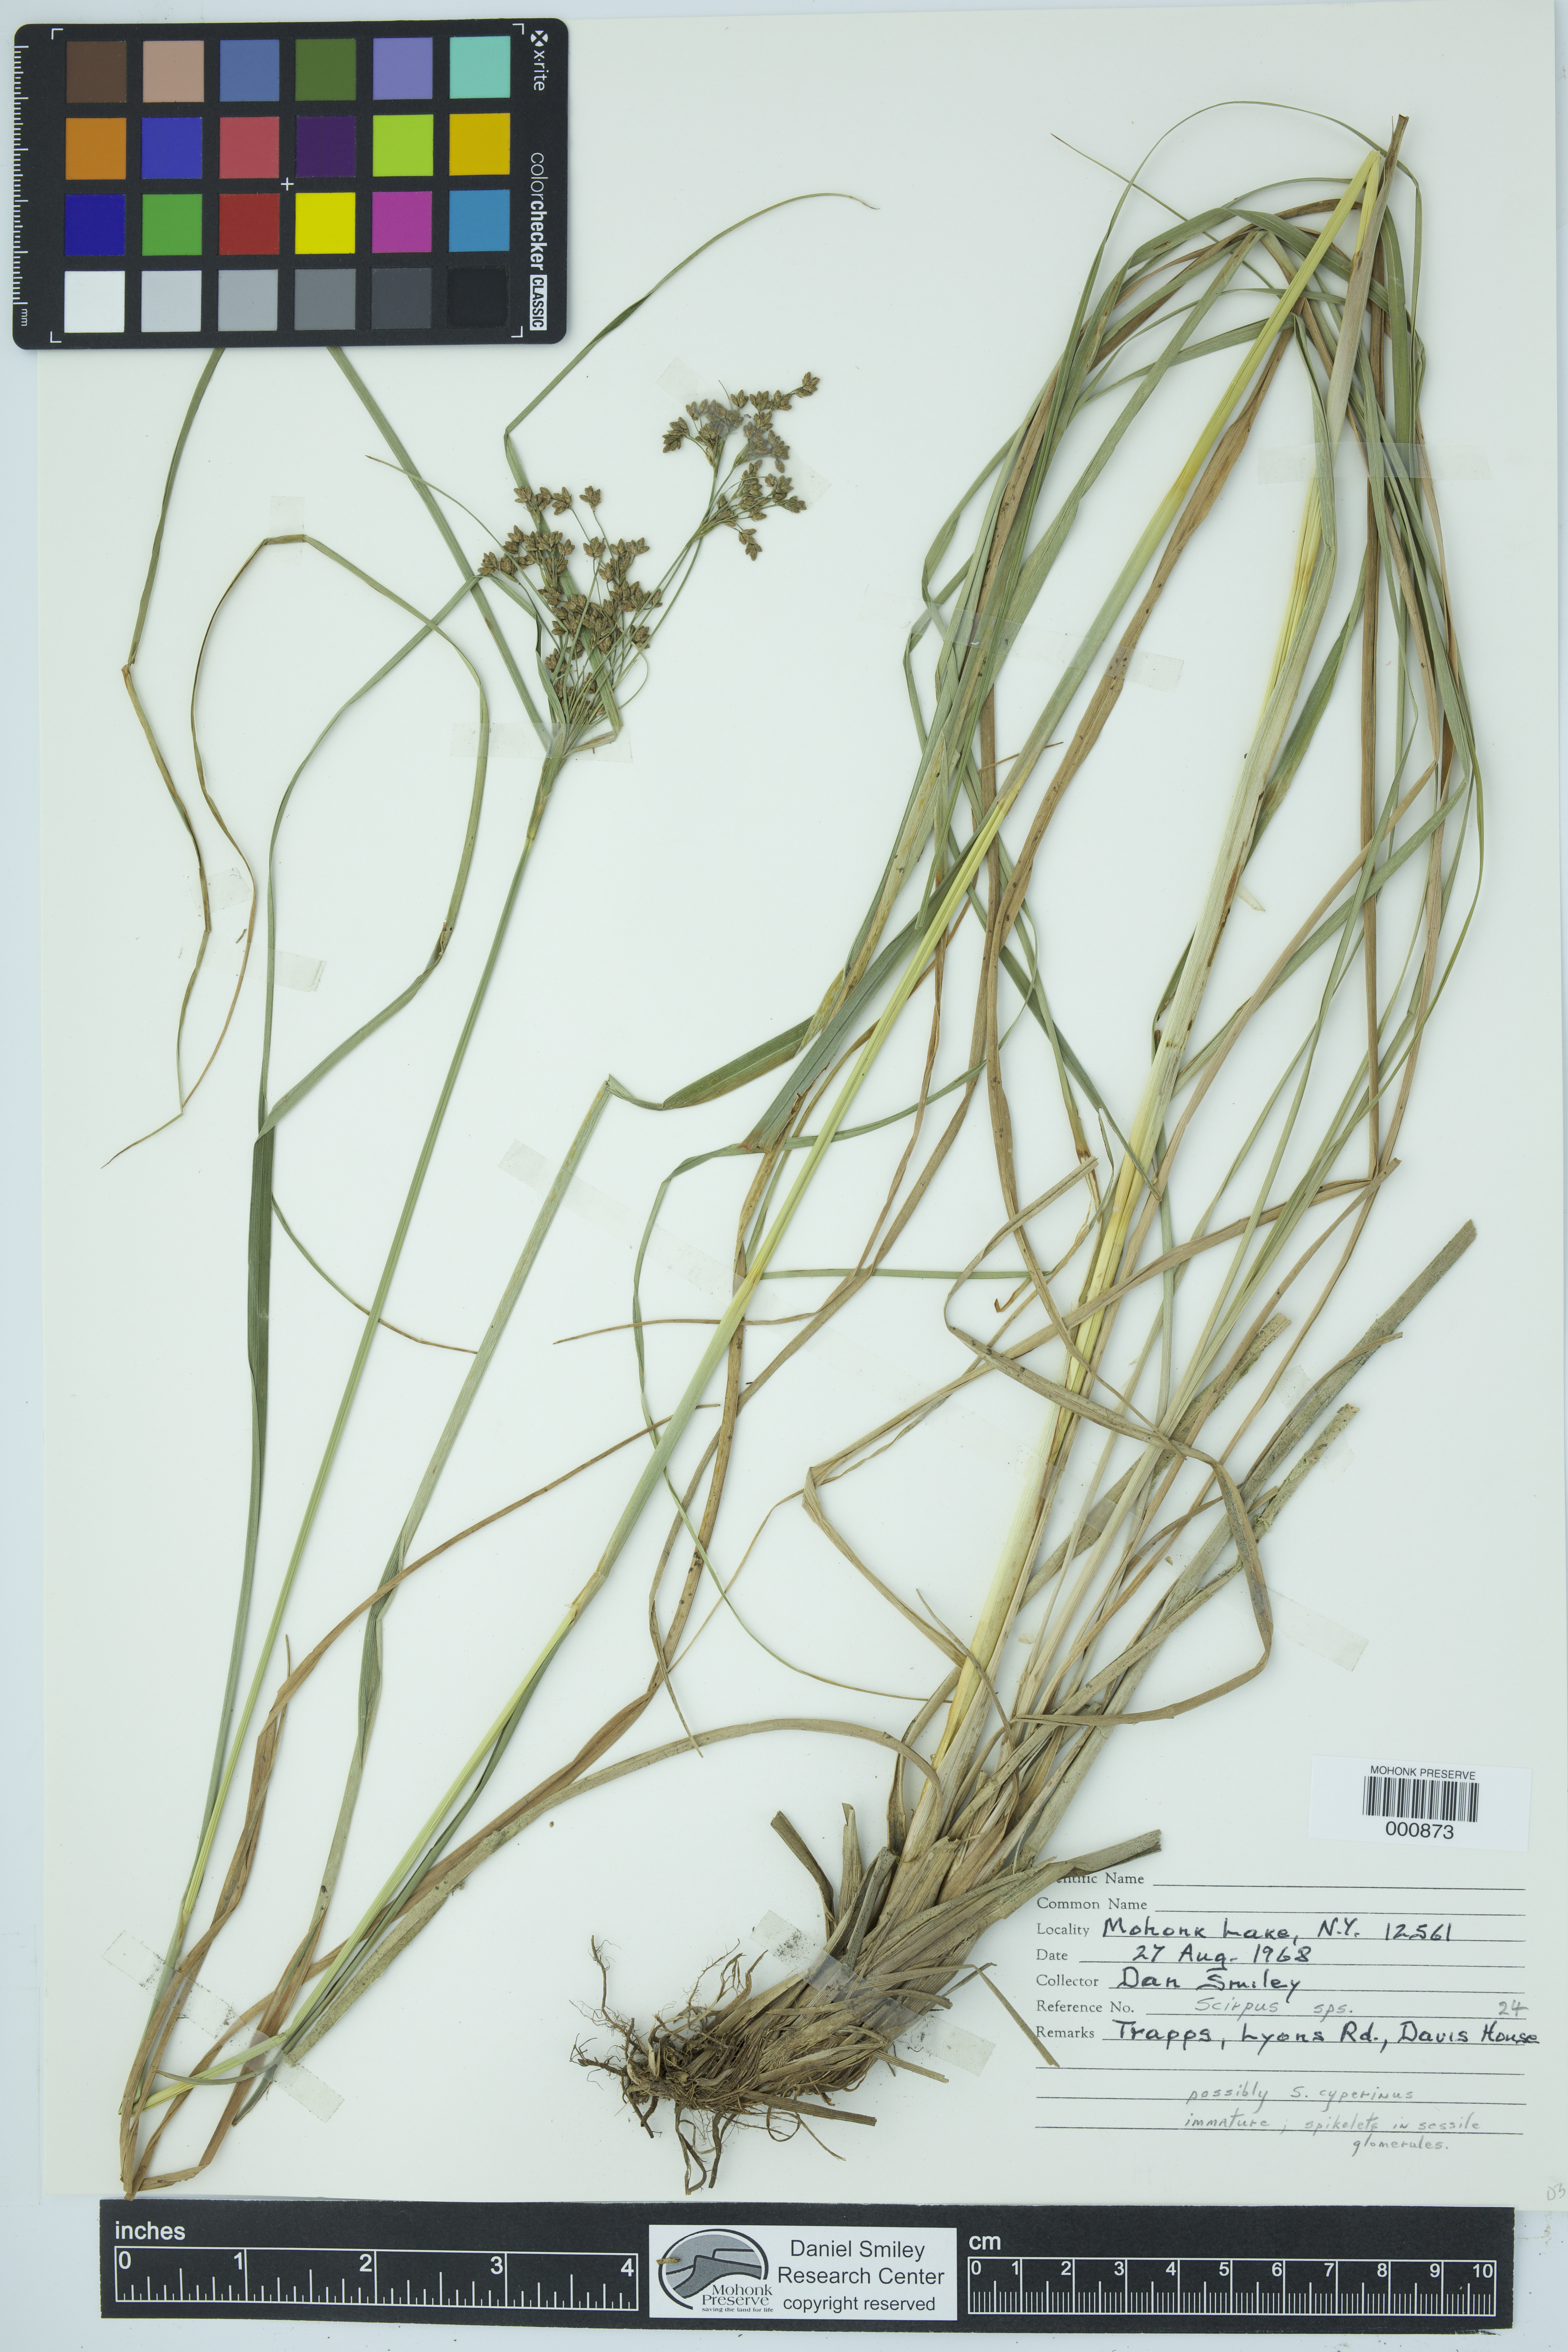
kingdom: Plantae
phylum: Tracheophyta
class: Liliopsida
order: Poales
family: Cyperaceae
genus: Scirpus
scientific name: Scirpus cyperinus
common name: Black-sheathed bulrush
